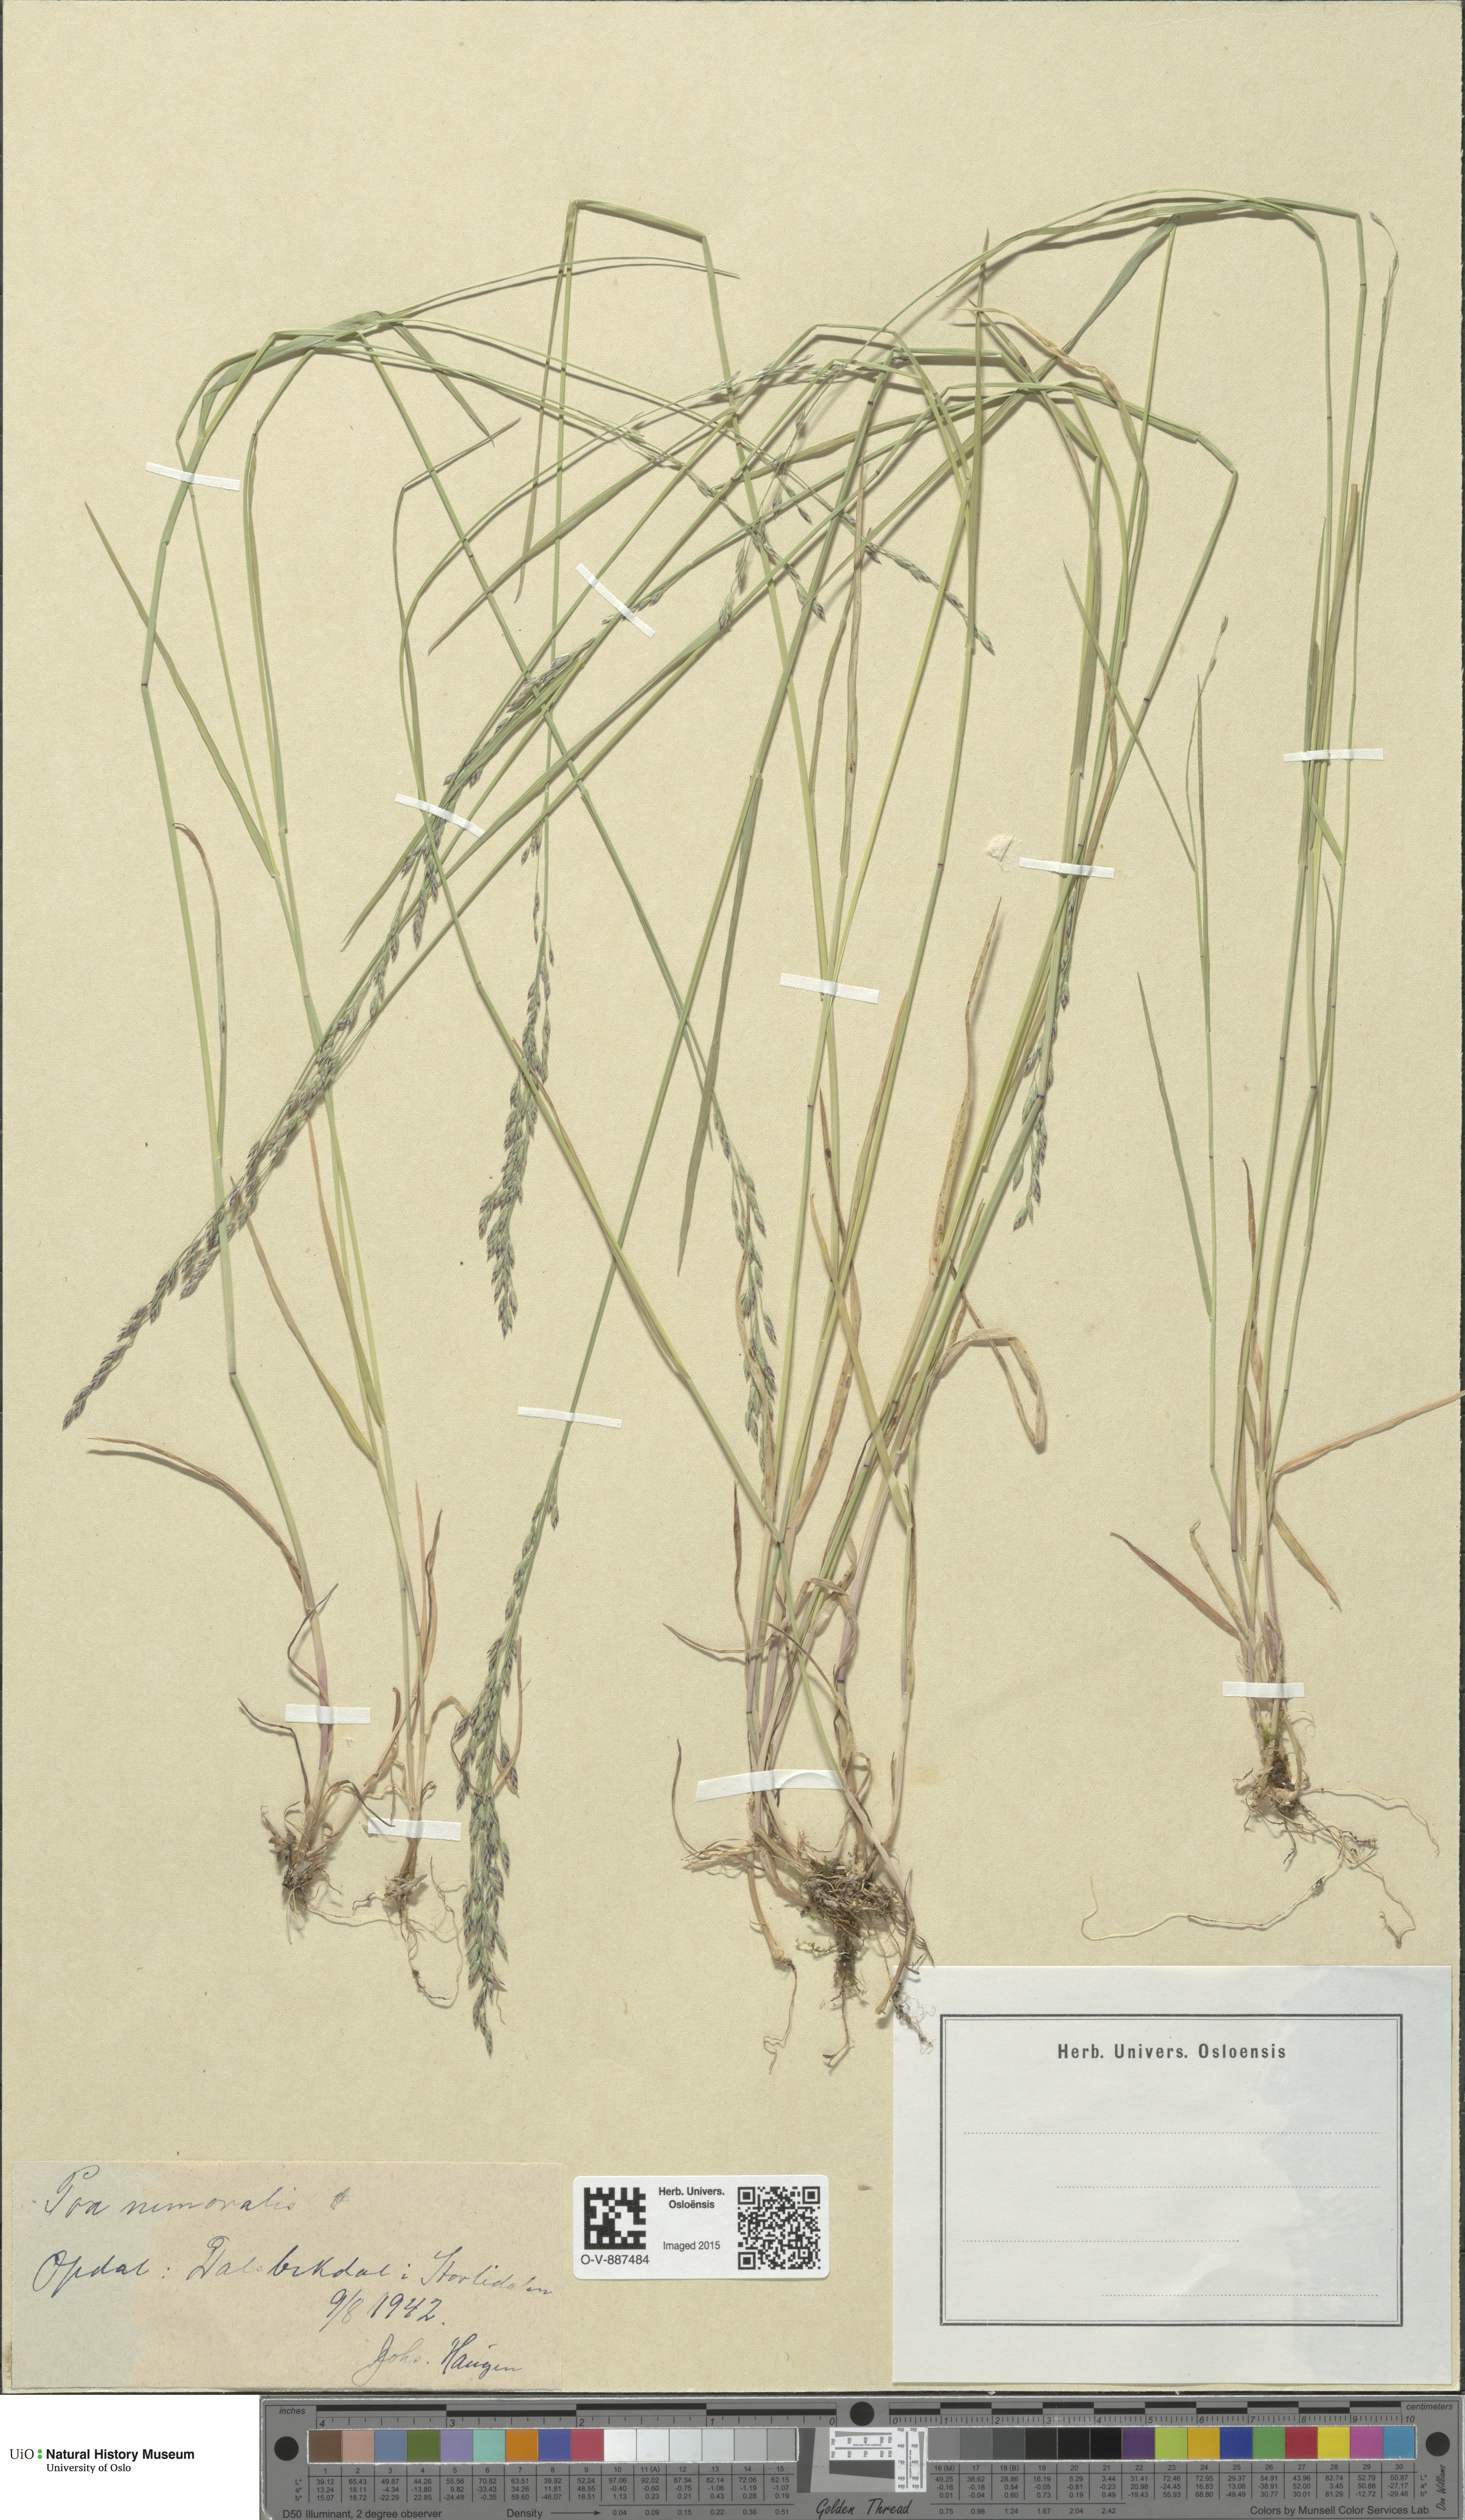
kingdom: Plantae
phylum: Tracheophyta
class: Liliopsida
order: Poales
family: Poaceae
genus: Poa
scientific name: Poa nemoralis
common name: Wood bluegrass
